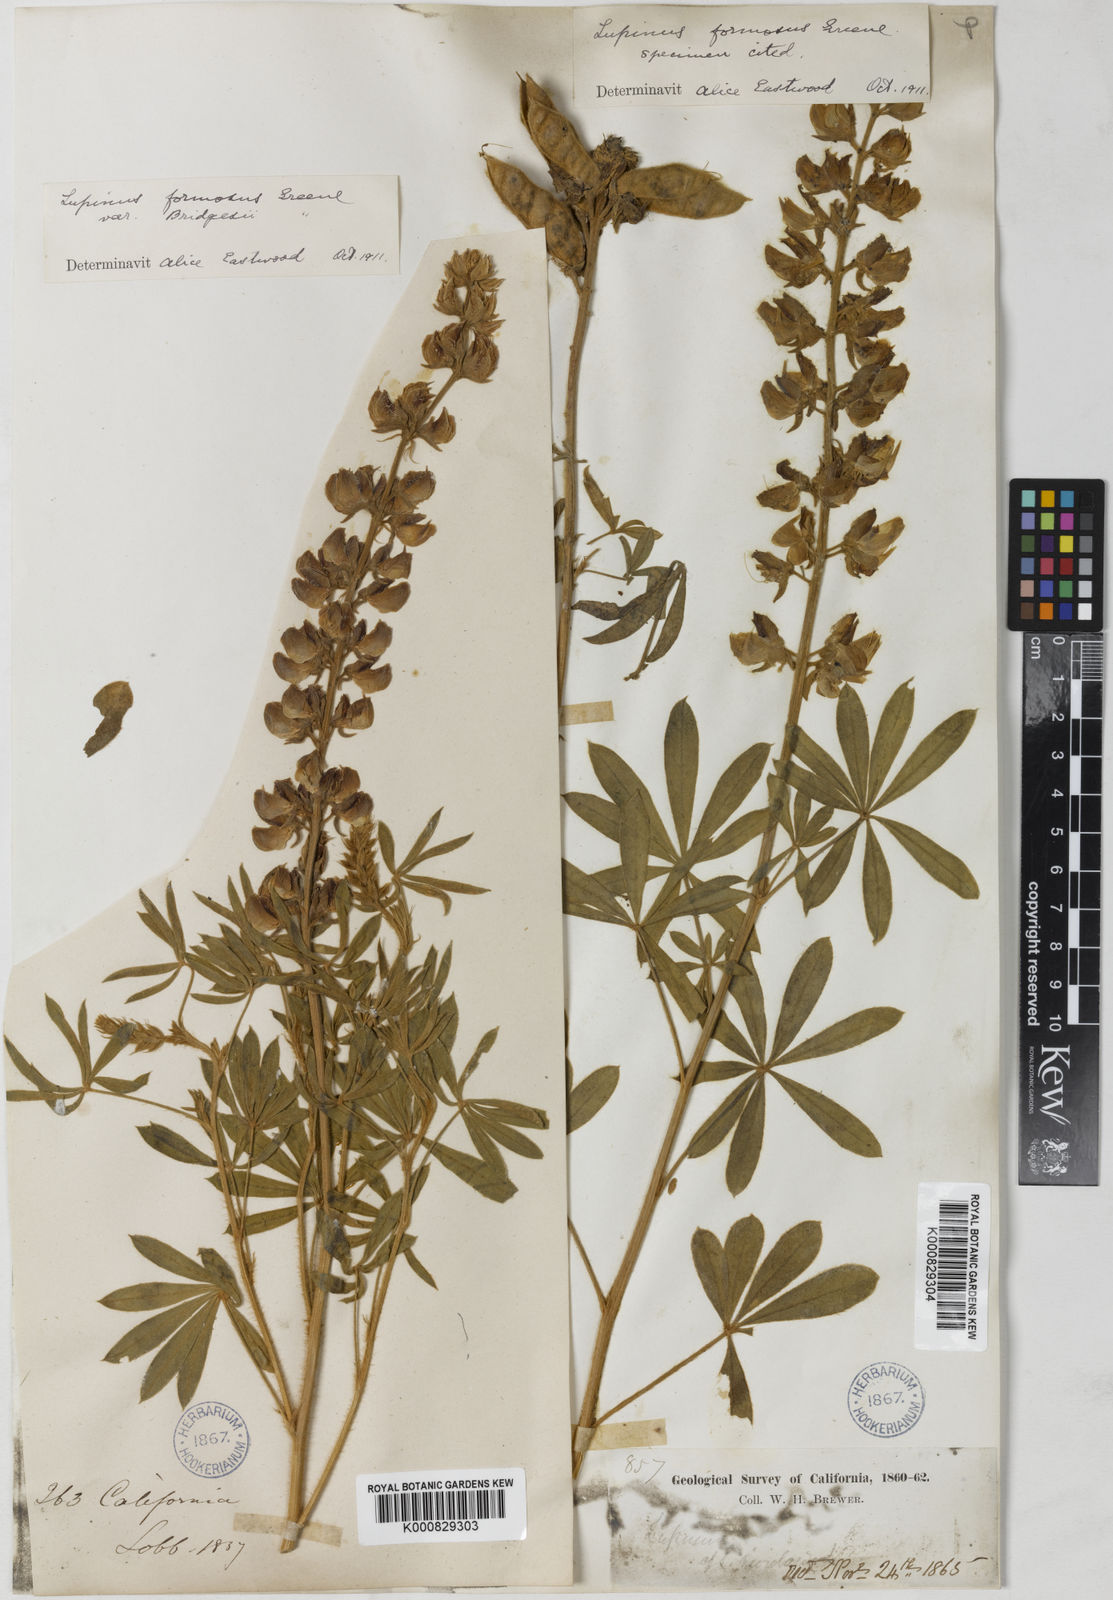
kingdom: Plantae
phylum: Tracheophyta
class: Magnoliopsida
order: Fabales
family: Fabaceae
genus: Lupinus
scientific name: Lupinus formosus
